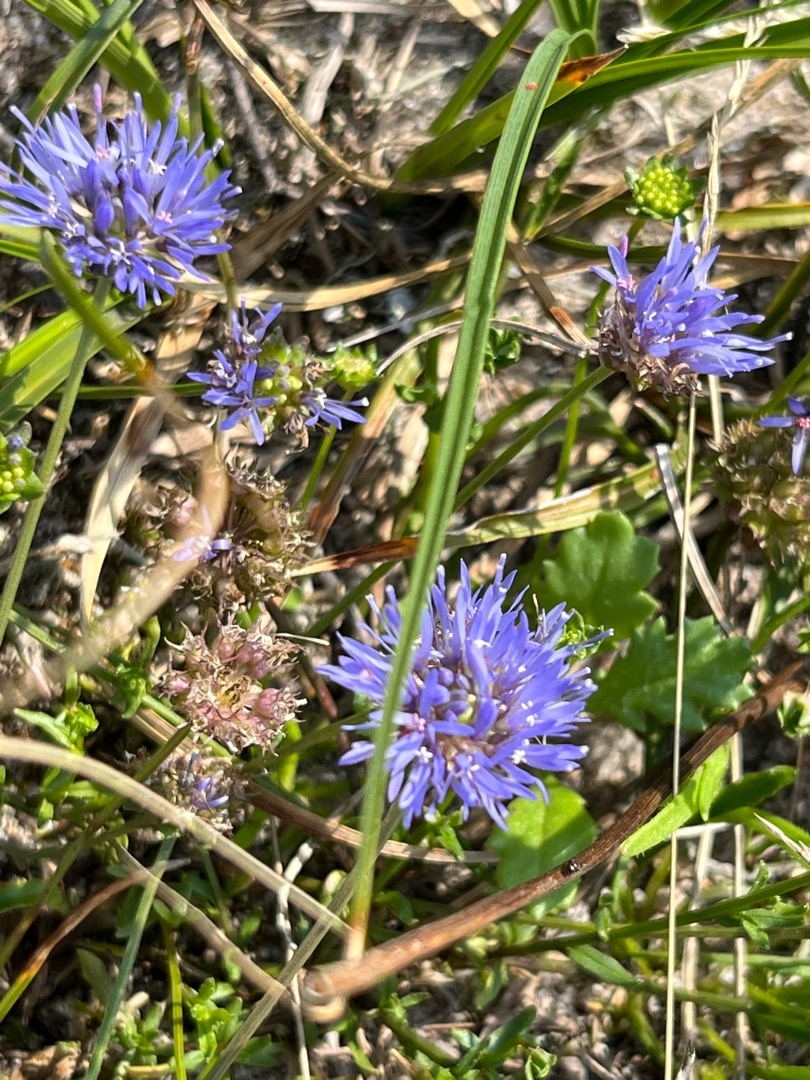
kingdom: Plantae
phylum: Tracheophyta
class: Magnoliopsida
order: Asterales
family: Campanulaceae
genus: Jasione
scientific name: Jasione montana
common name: Blåmunke
